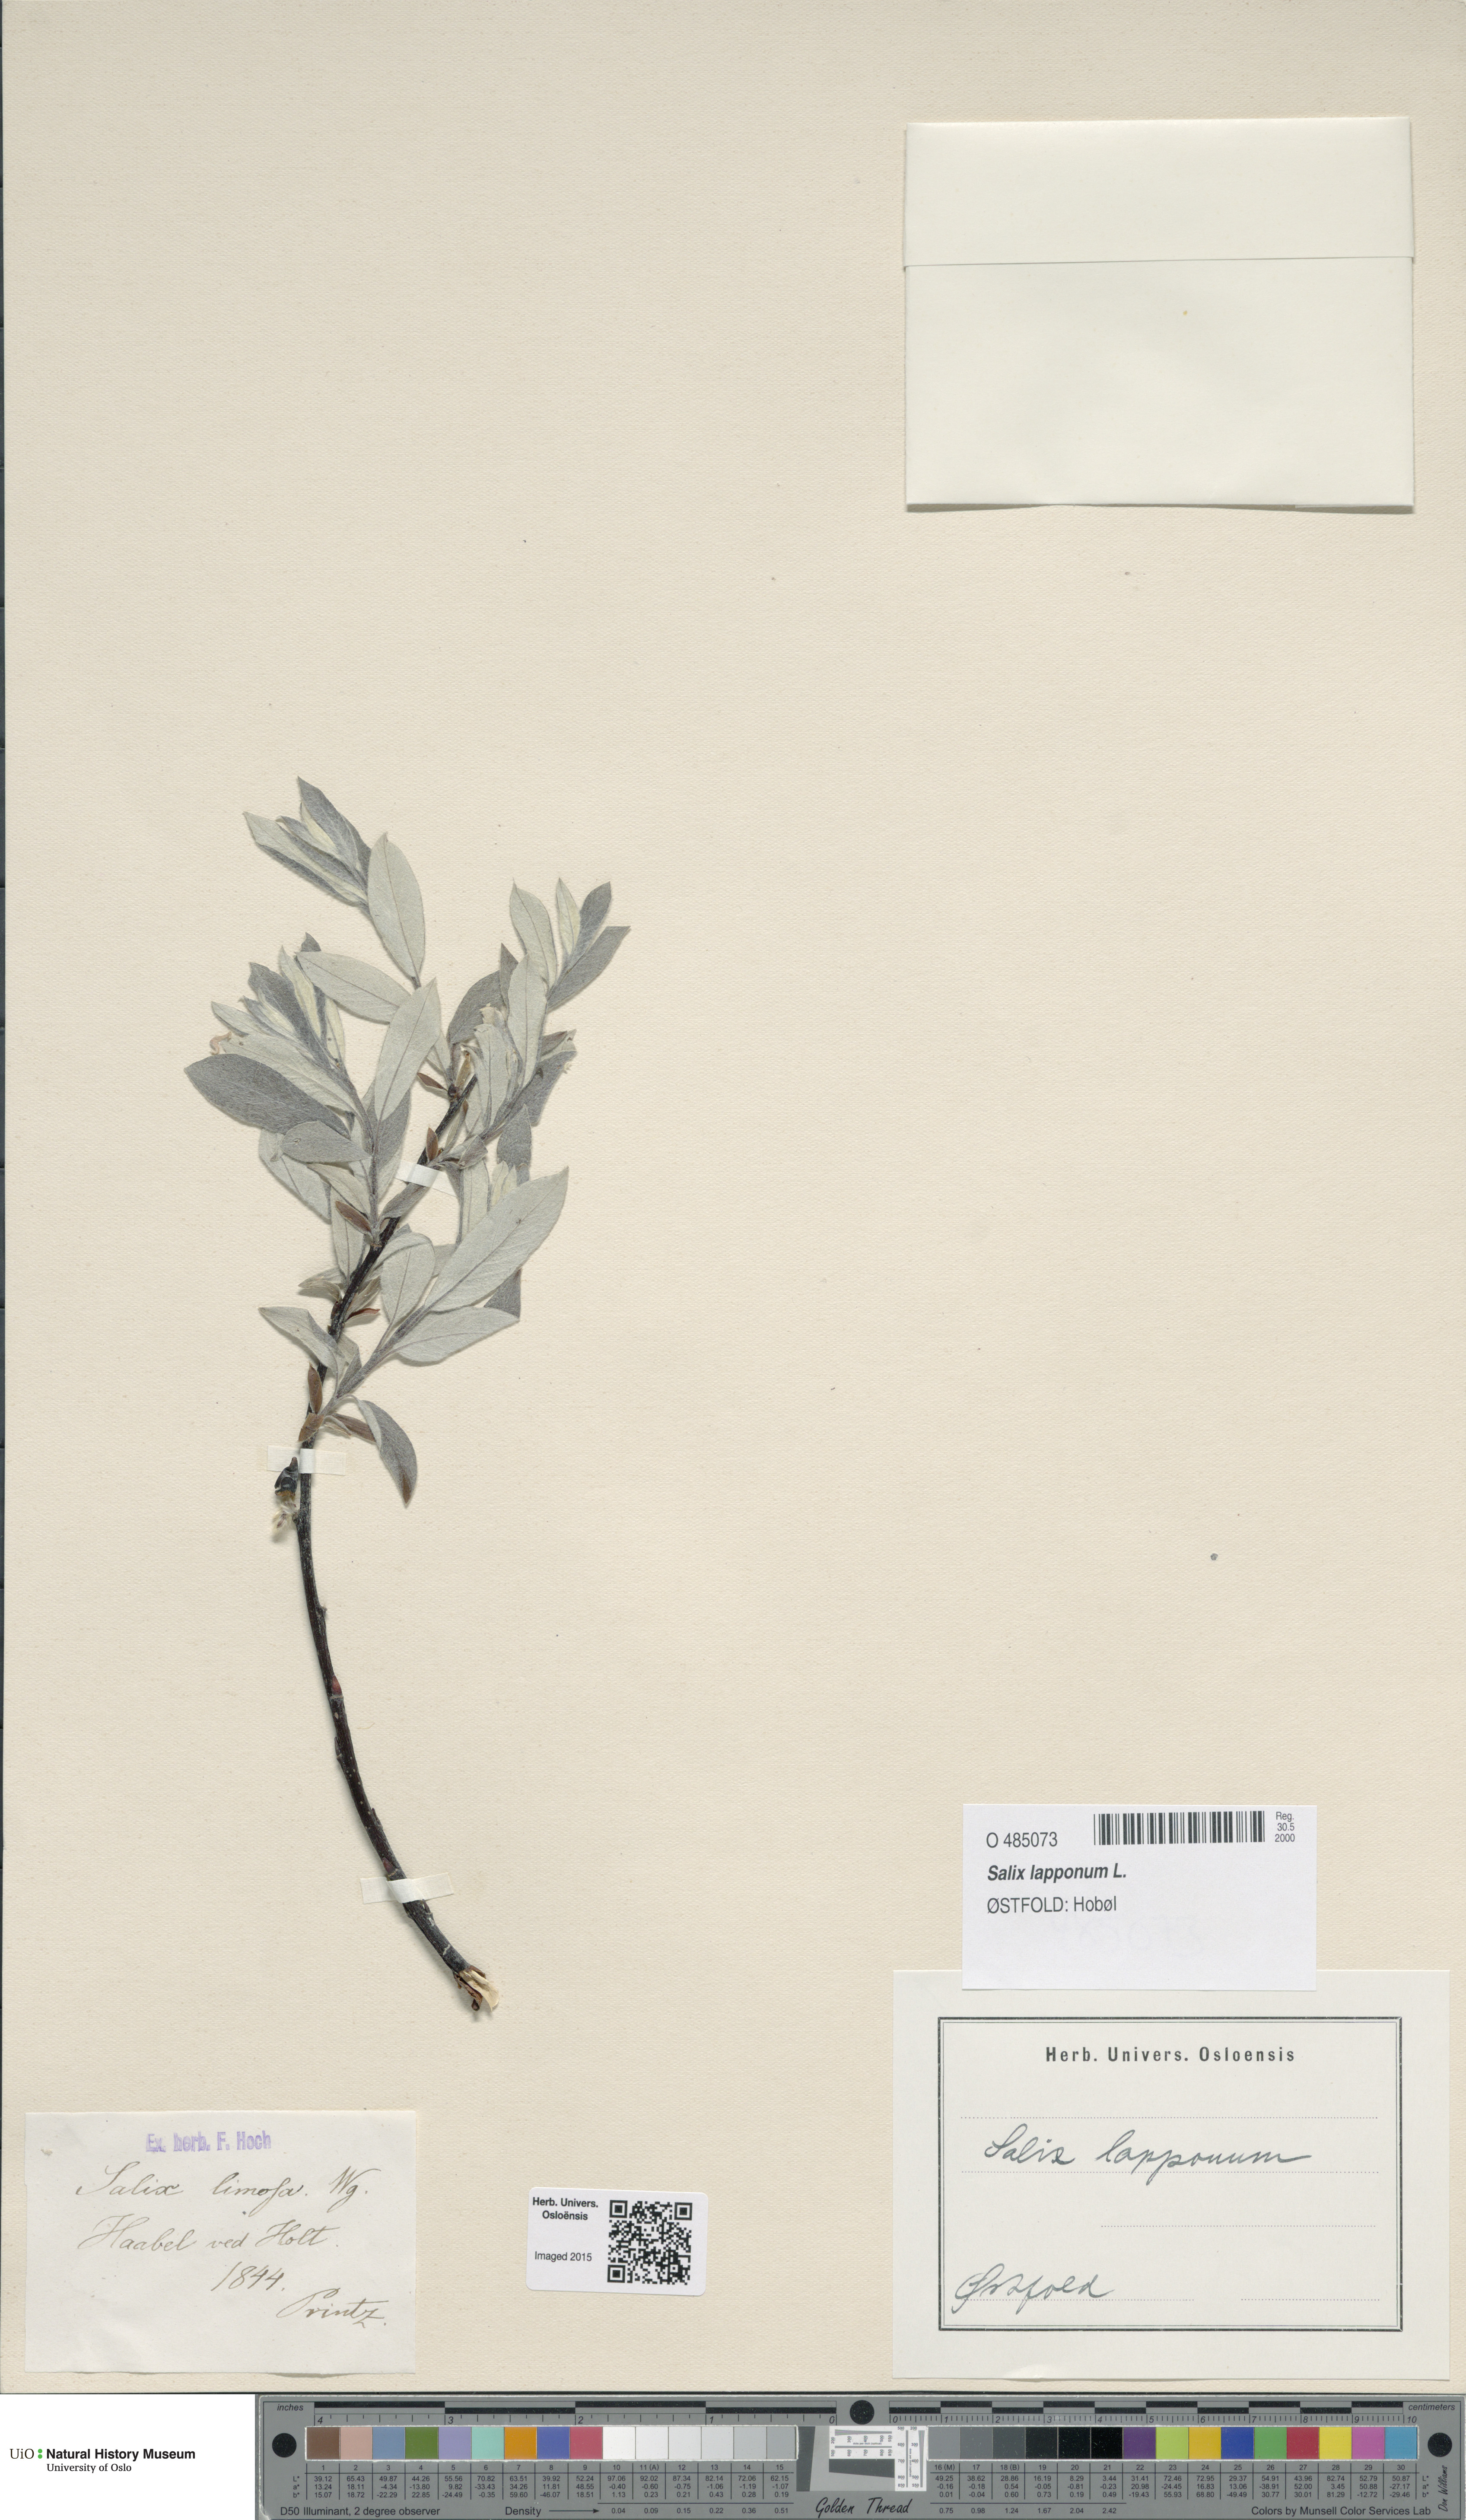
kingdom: Plantae
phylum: Tracheophyta
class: Magnoliopsida
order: Malpighiales
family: Salicaceae
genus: Salix
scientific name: Salix lapponum
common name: Downy willow
